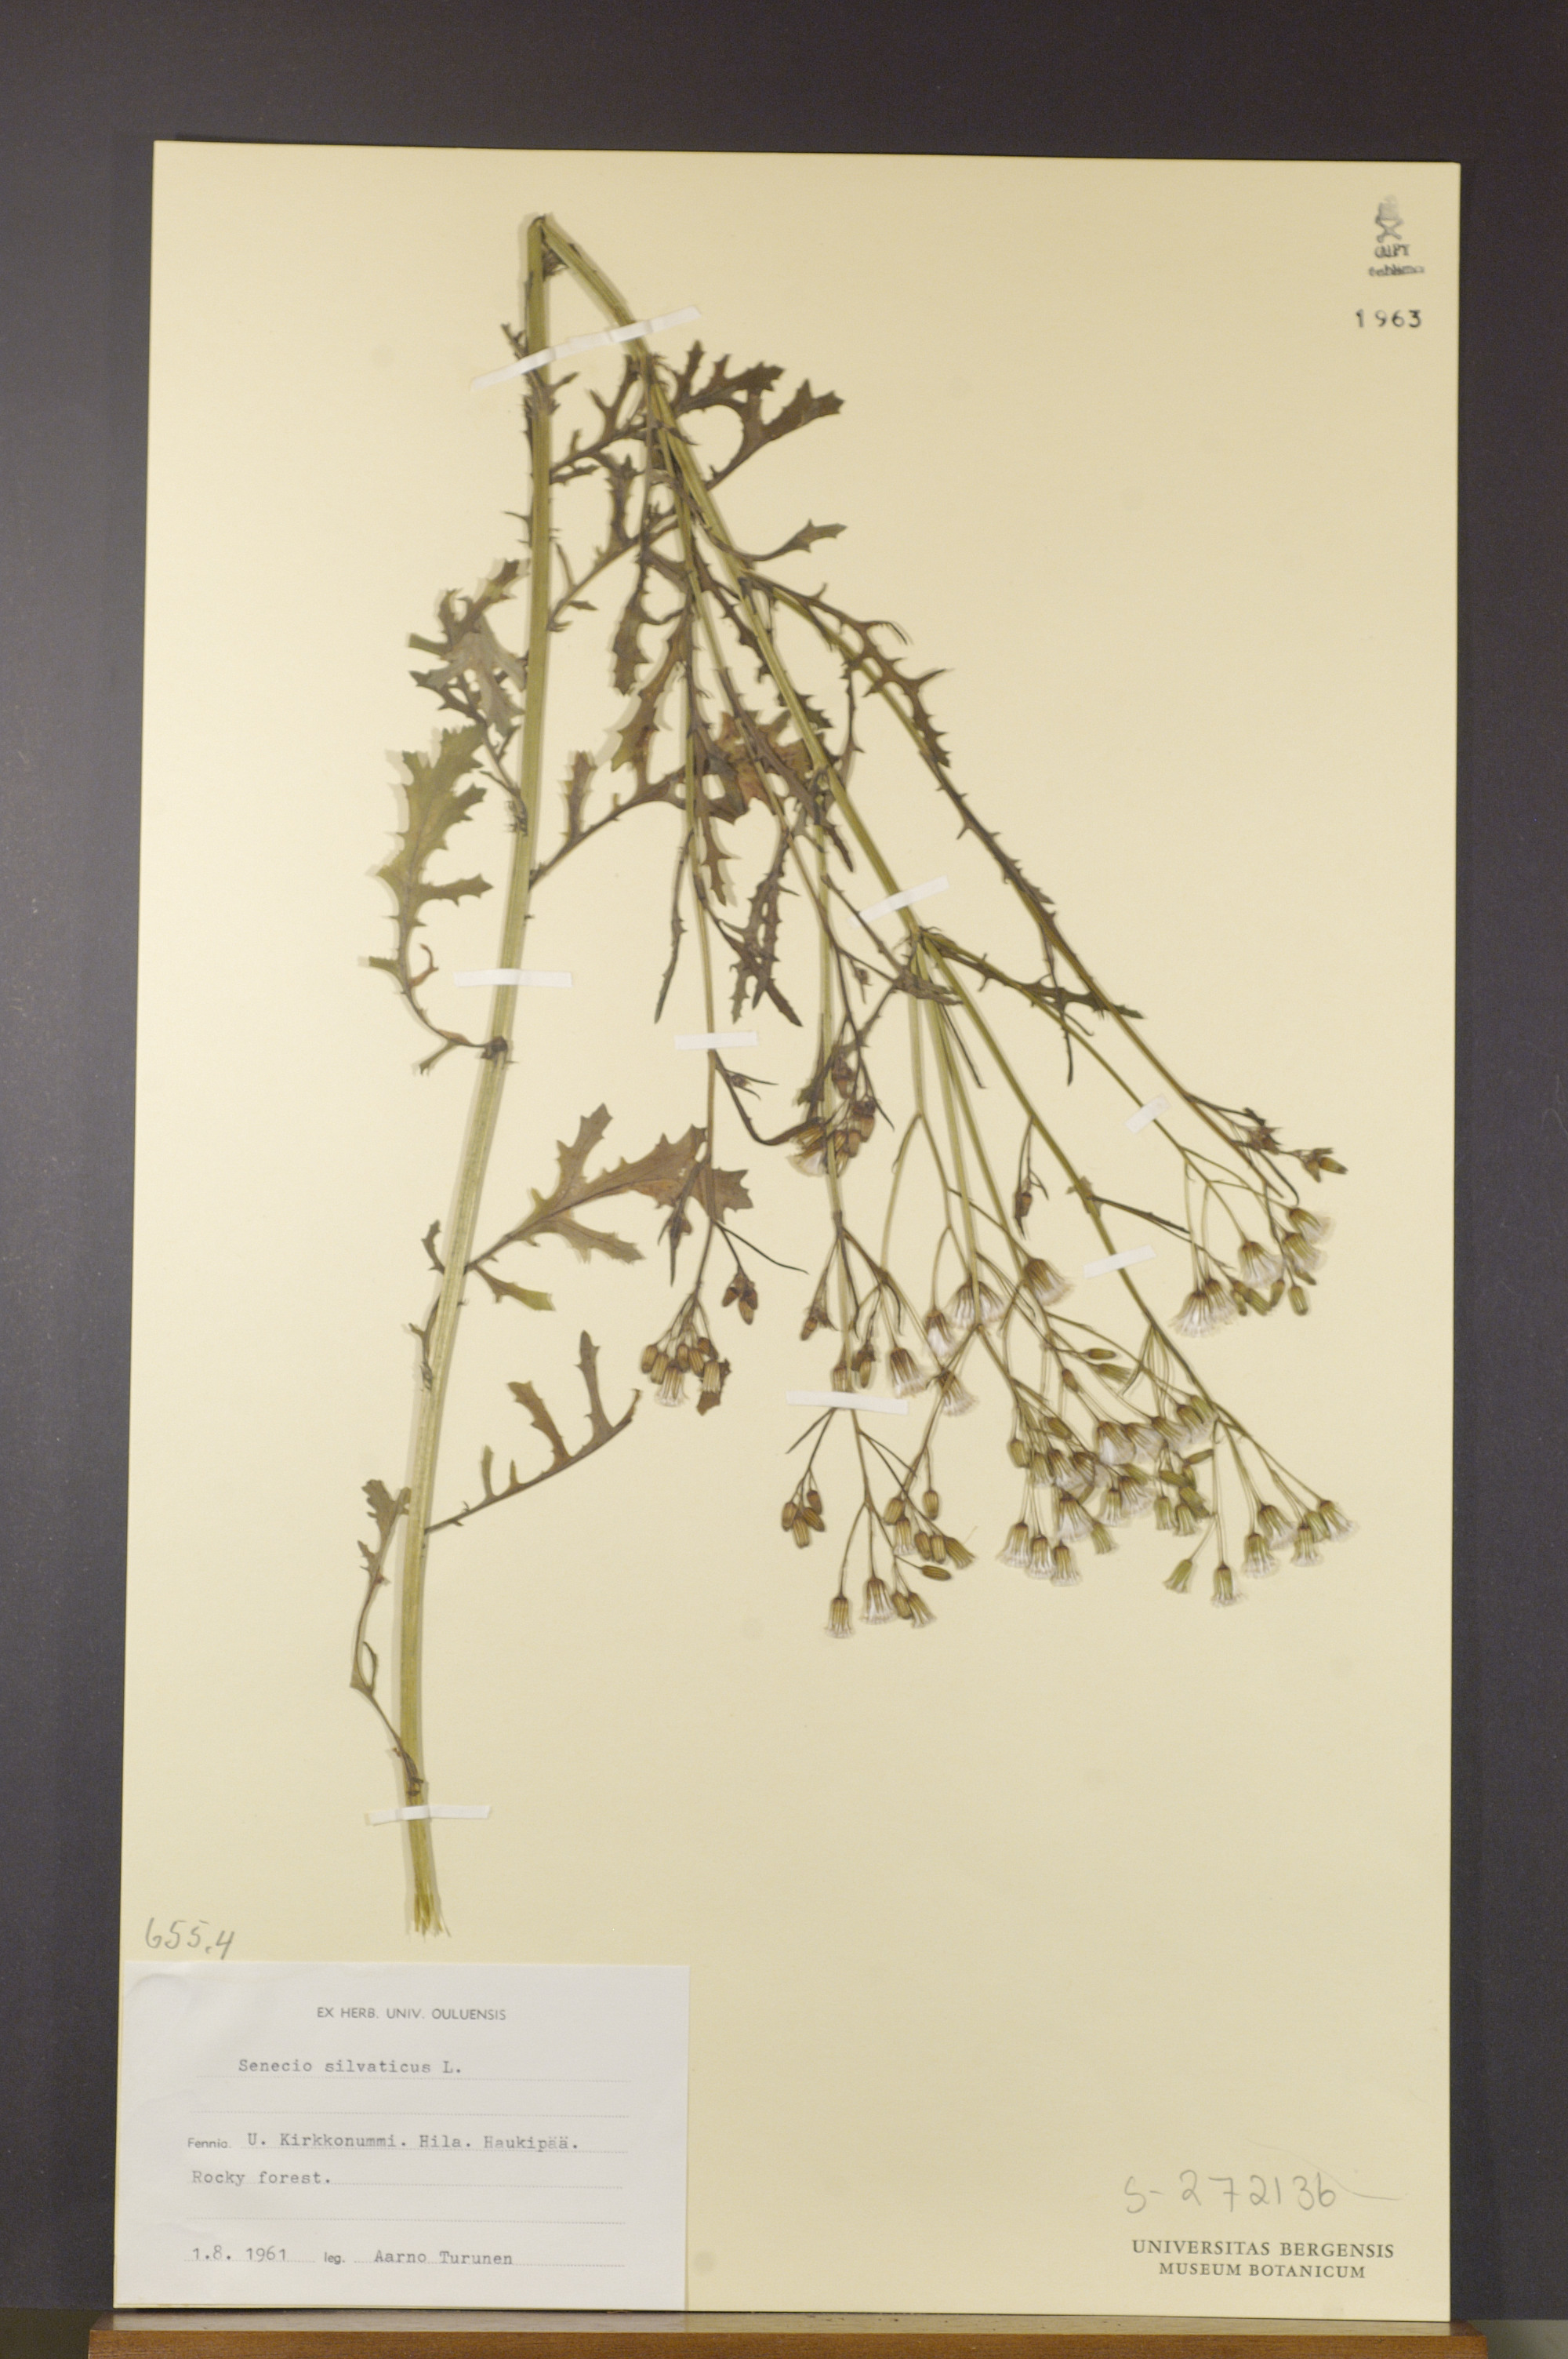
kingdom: Plantae
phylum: Tracheophyta
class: Magnoliopsida
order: Asterales
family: Asteraceae
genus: Senecio
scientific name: Senecio sylvaticus
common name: Woodland ragwort
